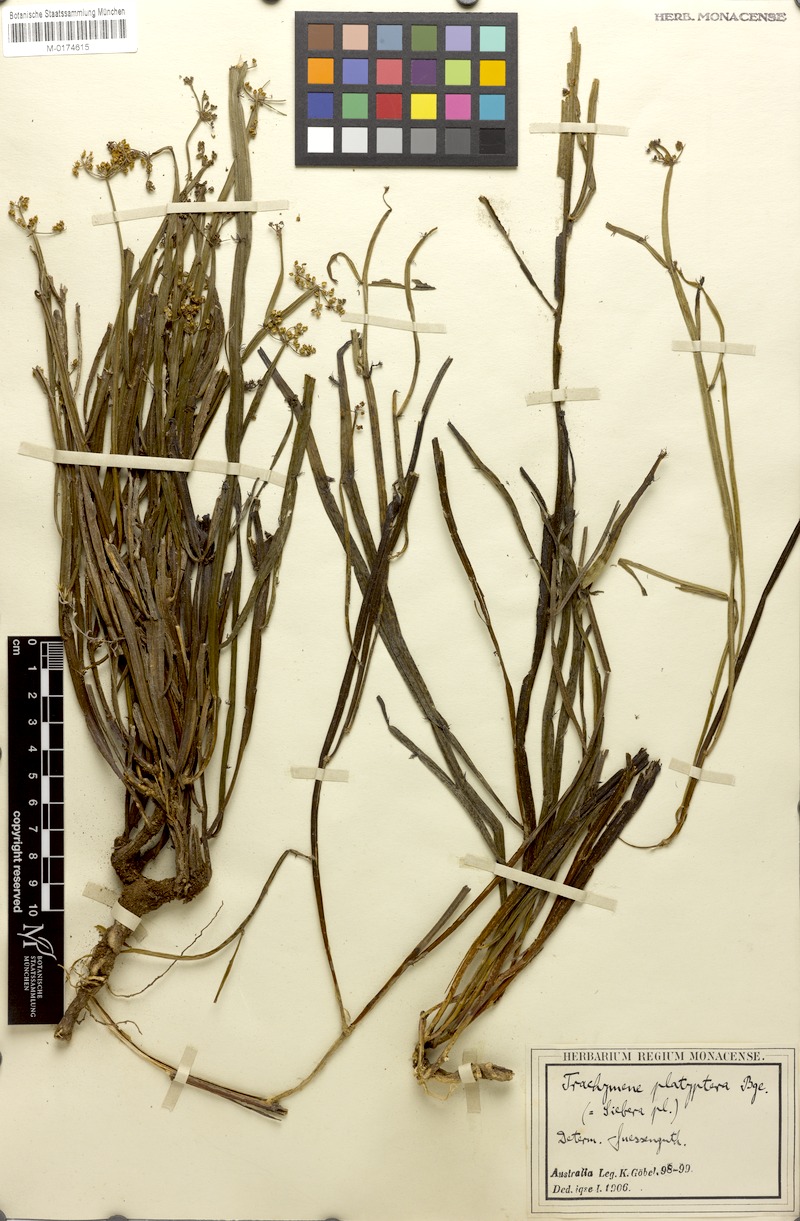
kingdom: Plantae
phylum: Tracheophyta
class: Magnoliopsida
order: Apiales
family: Apiaceae
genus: Platysace
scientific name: Platysace compressa
